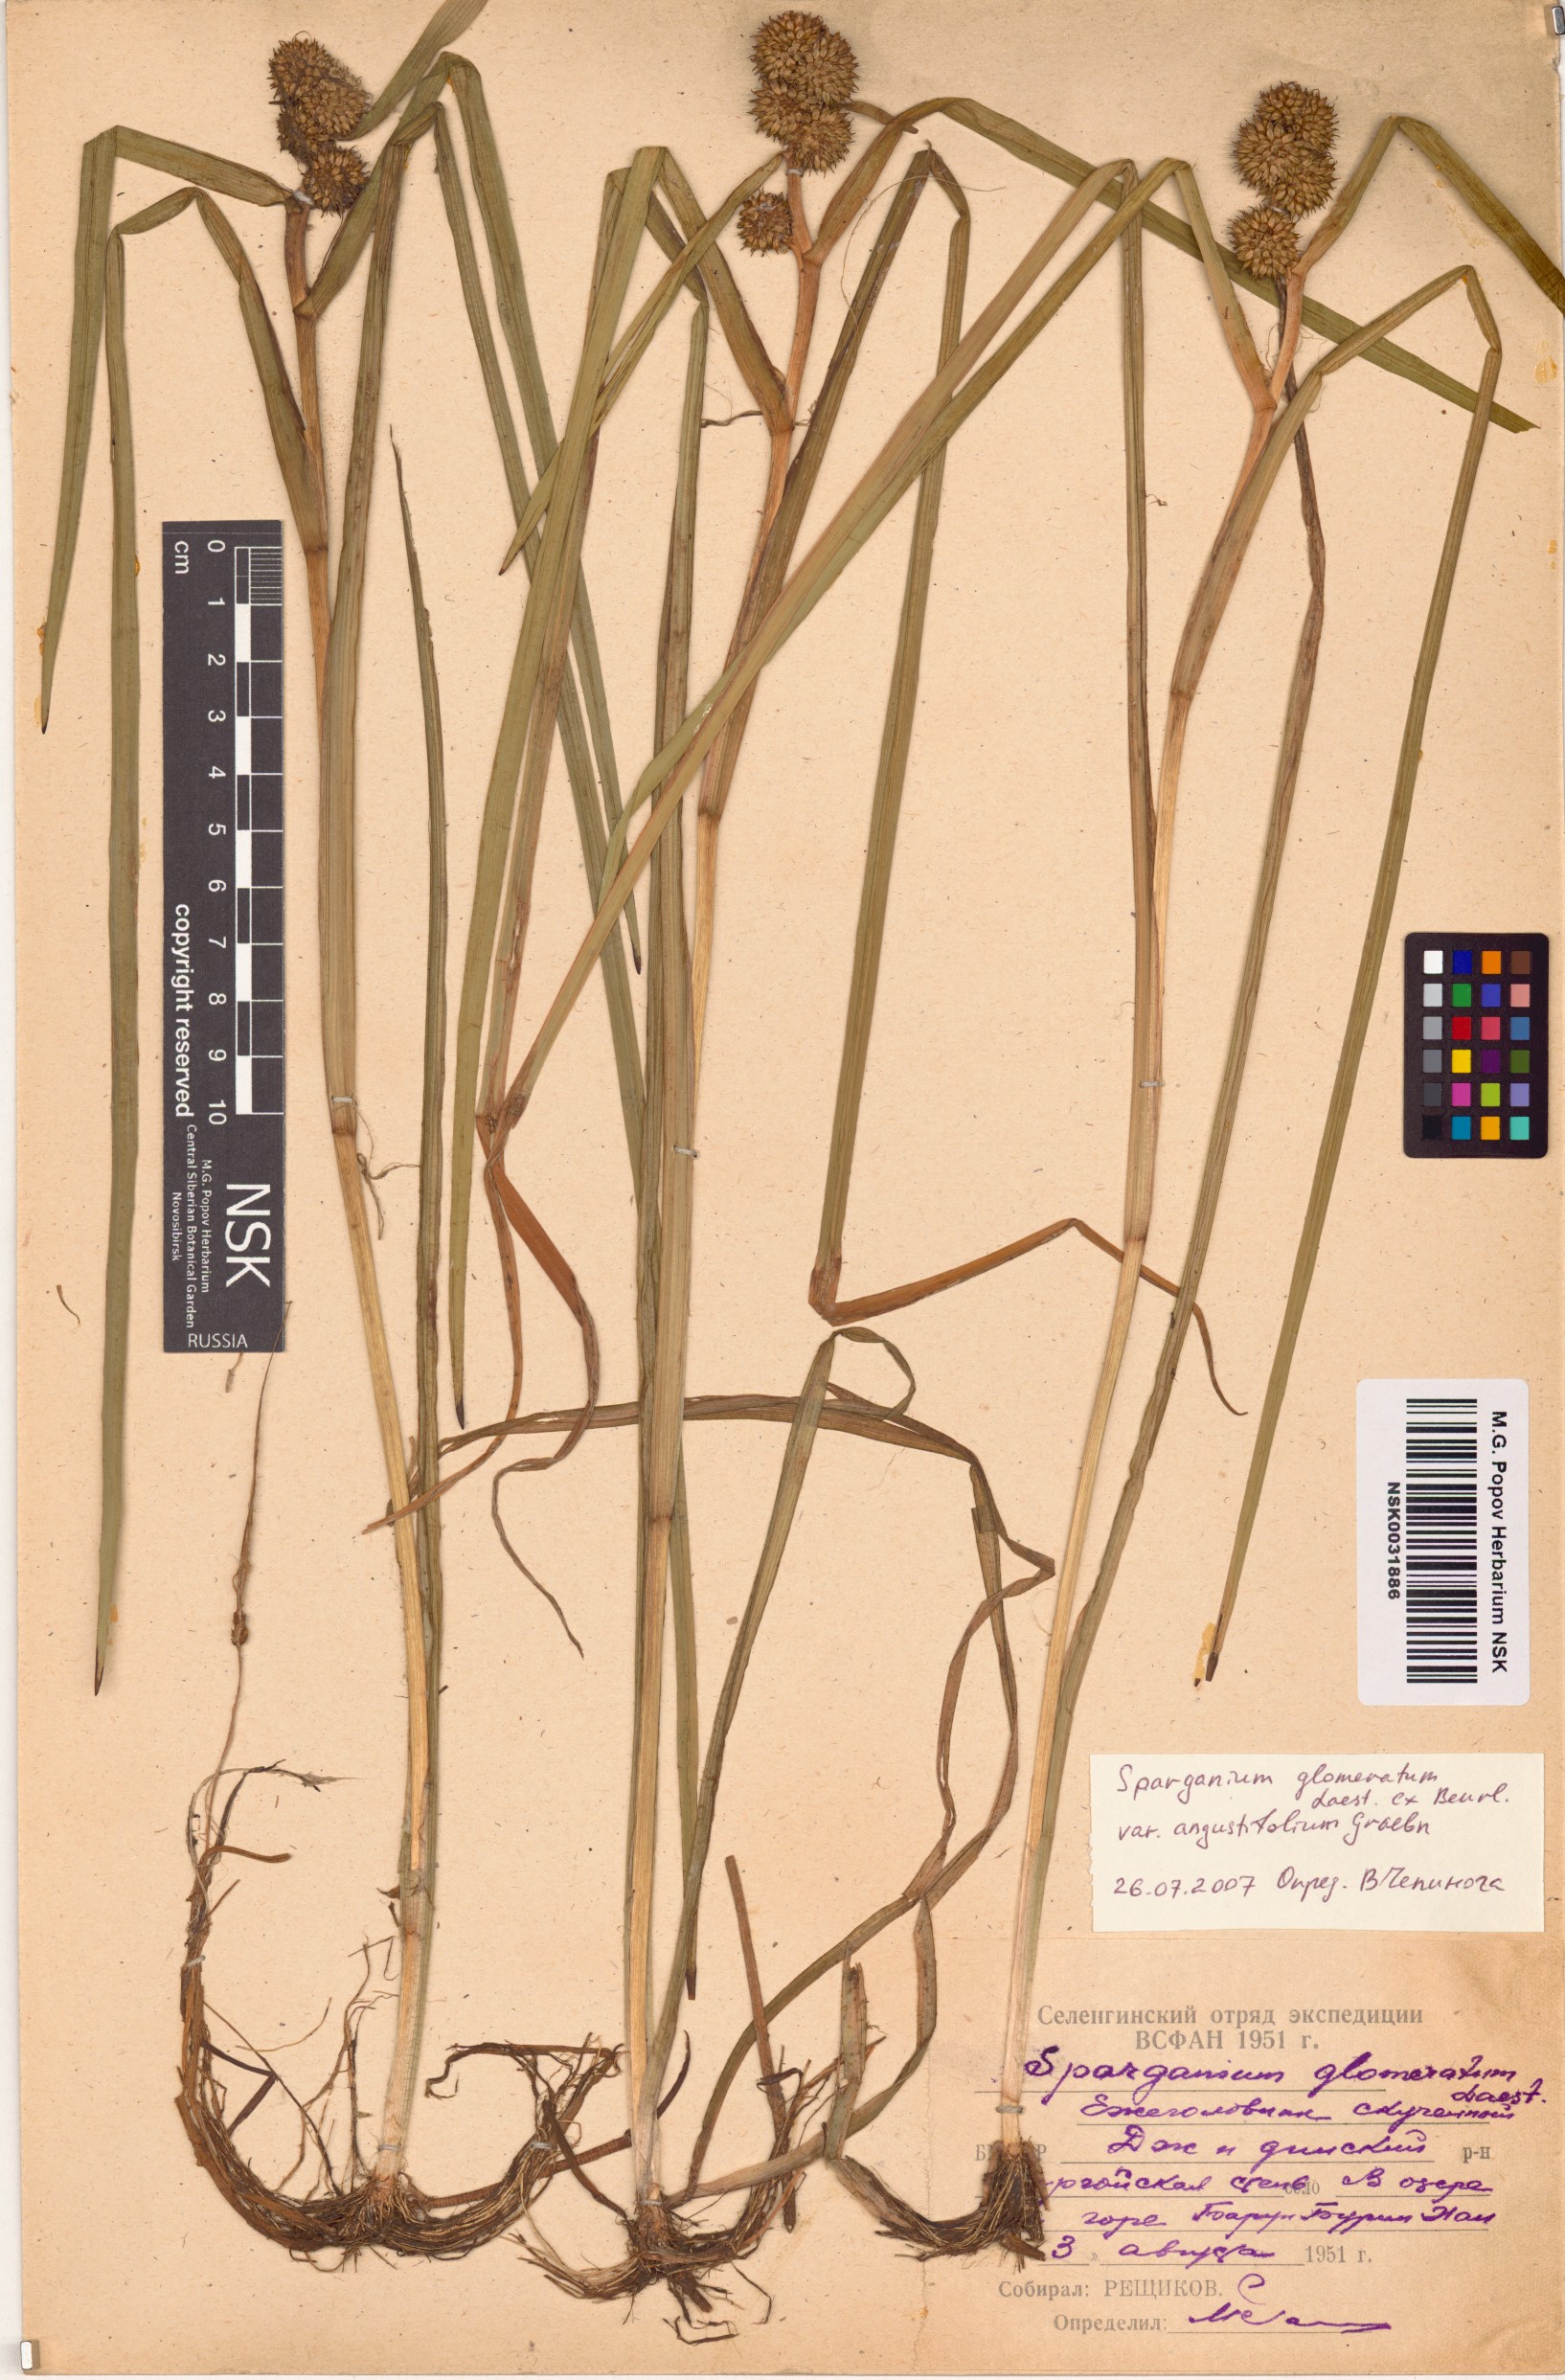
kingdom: Plantae
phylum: Tracheophyta
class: Liliopsida
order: Poales
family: Typhaceae
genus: Sparganium
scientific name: Sparganium glomeratum
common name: Clustered burreed
